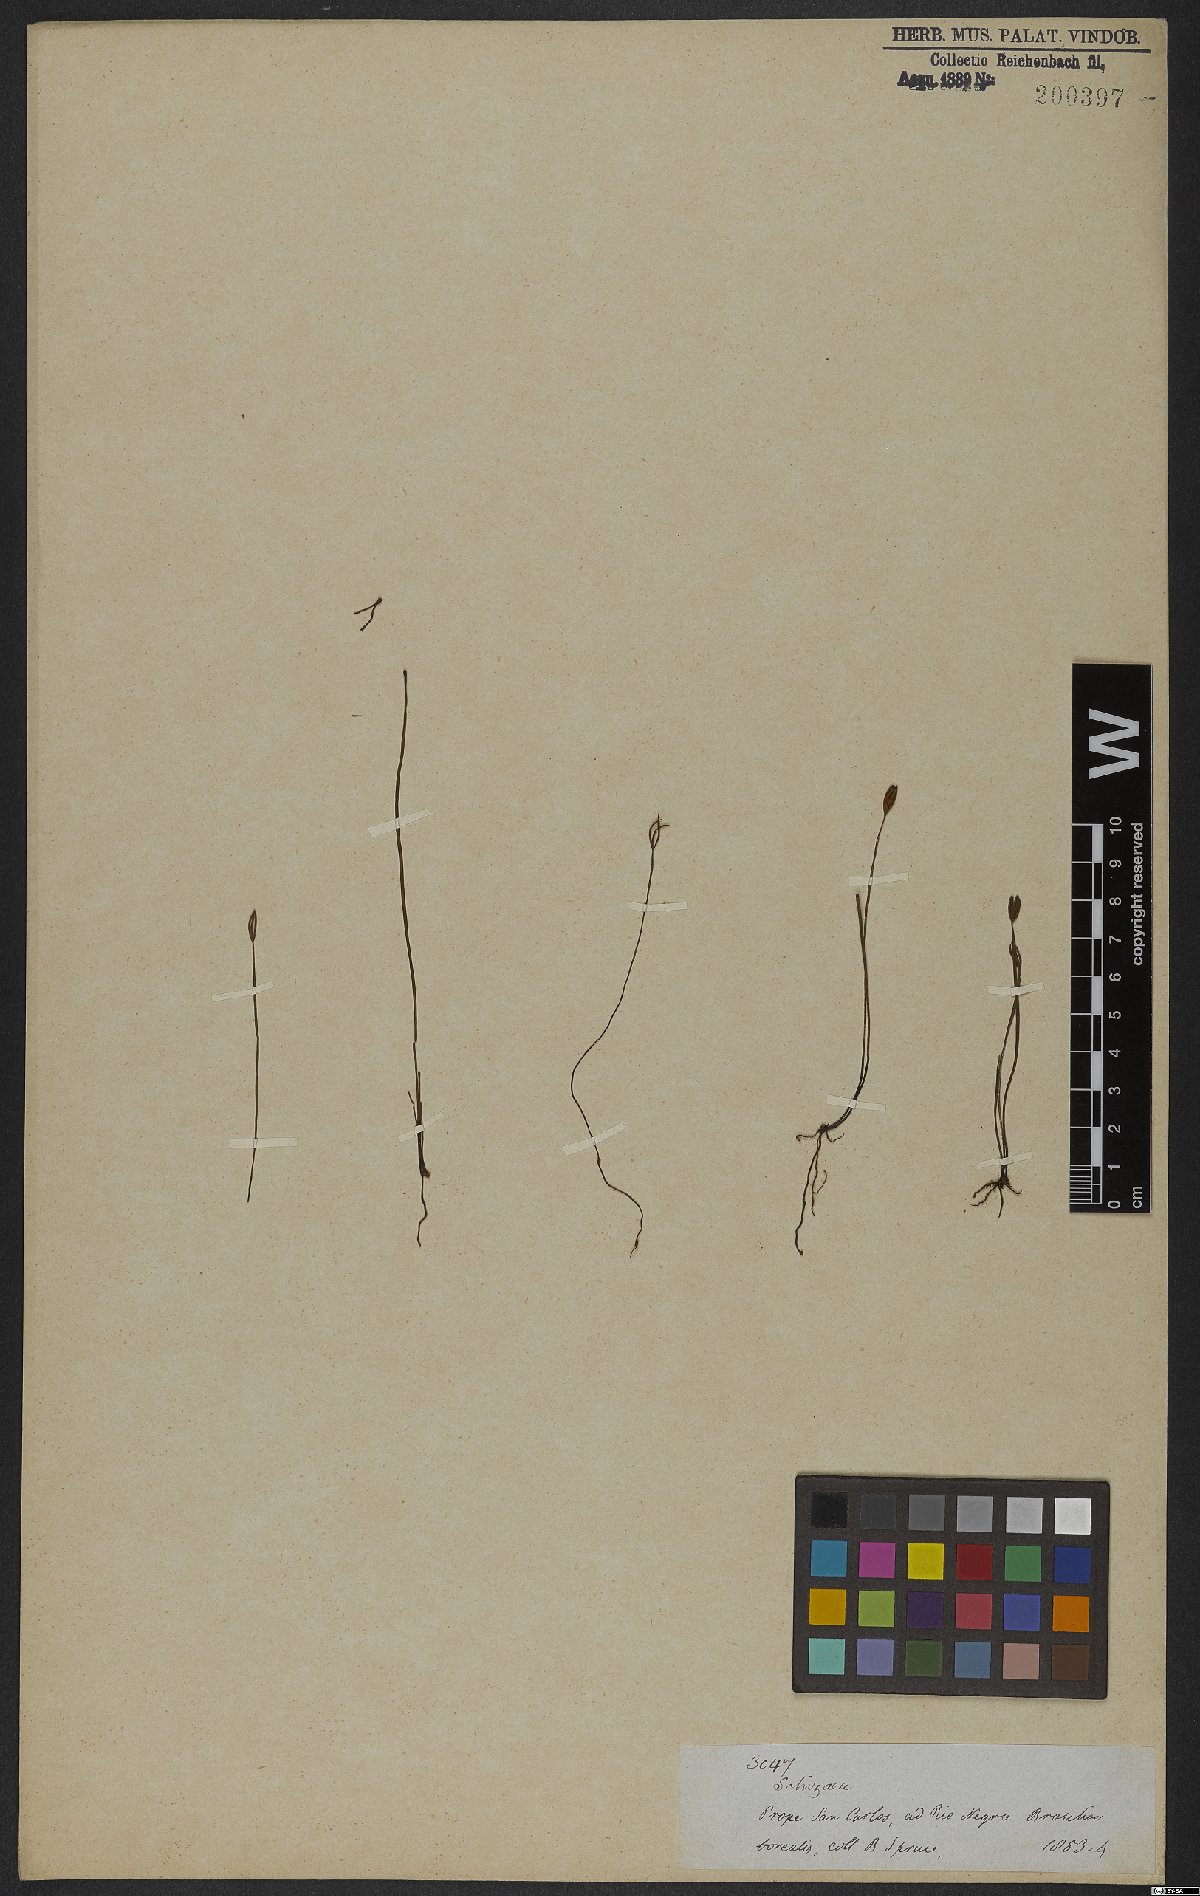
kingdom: Plantae
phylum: Tracheophyta
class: Polypodiopsida
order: Schizaeales
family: Schizaeaceae
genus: Schizaea
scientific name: Schizaea
